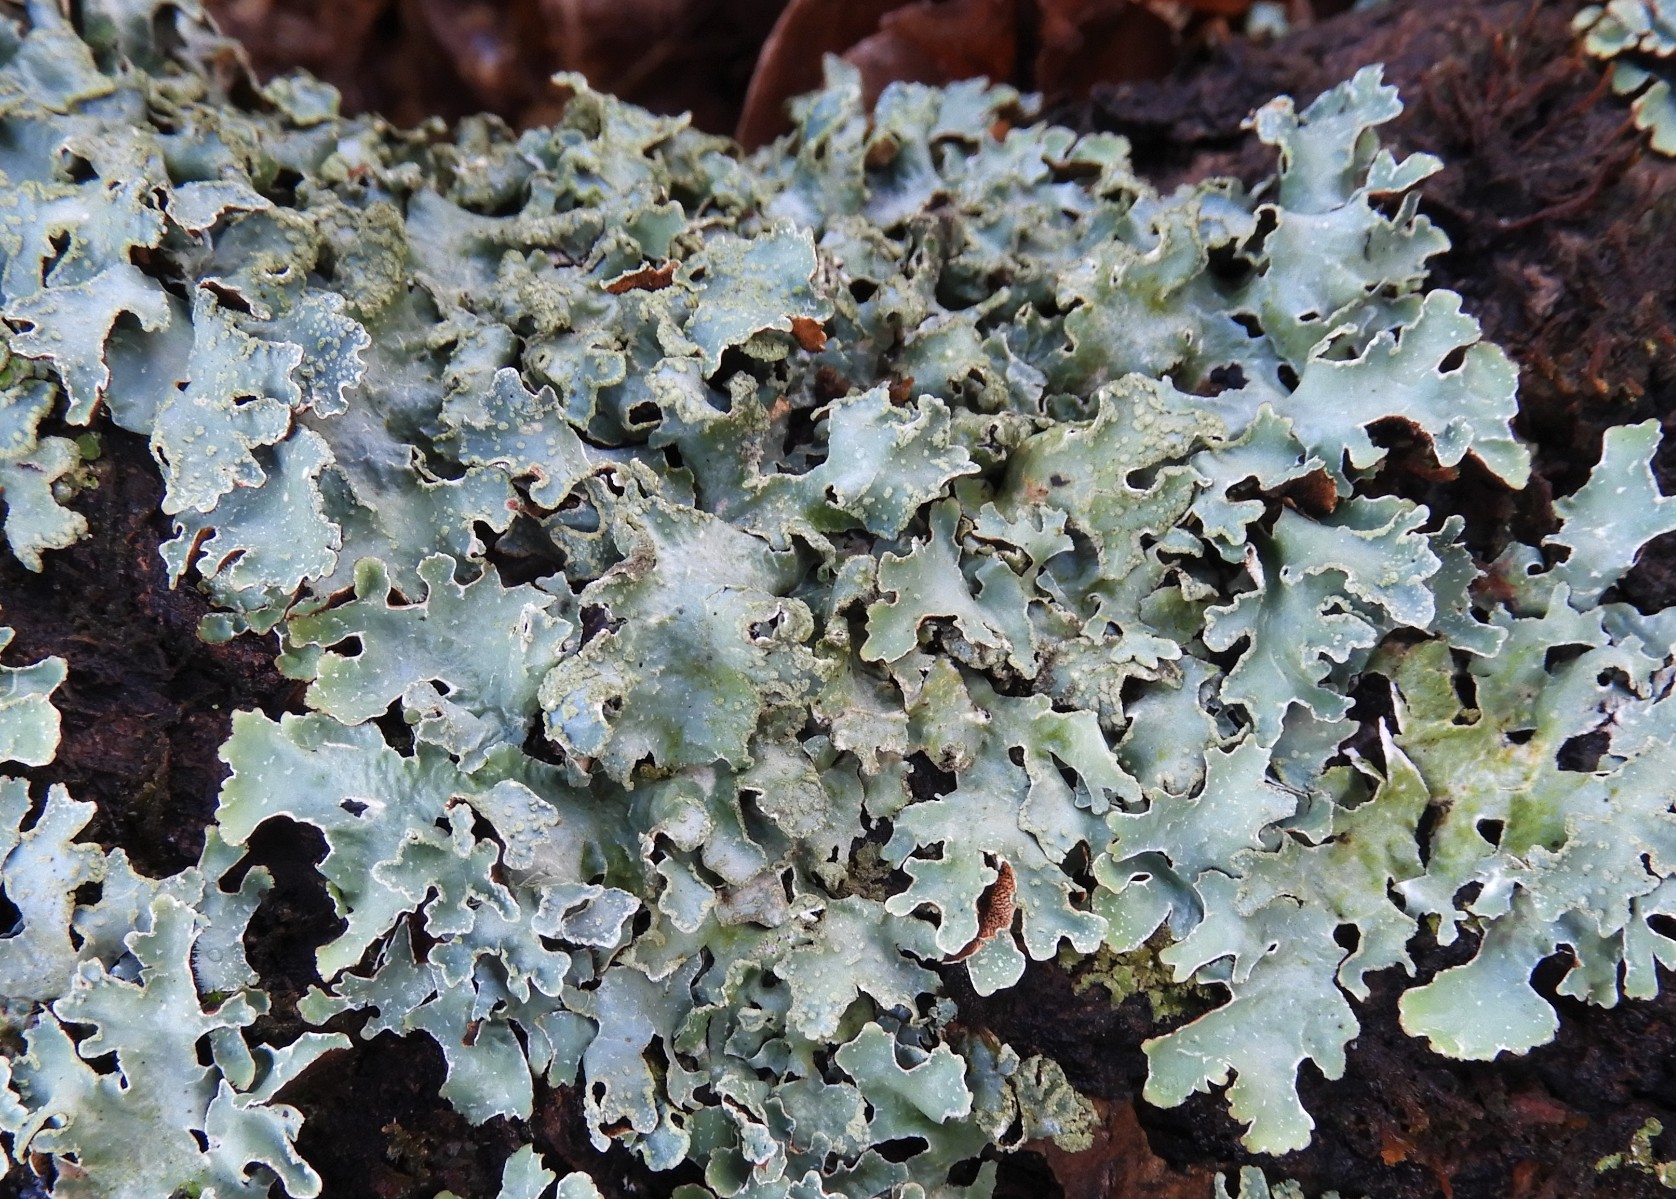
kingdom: Fungi
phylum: Ascomycota
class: Lecanoromycetes
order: Lecanorales
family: Parmeliaceae
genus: Parmelia
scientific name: Parmelia sulcata
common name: rynket skållav
